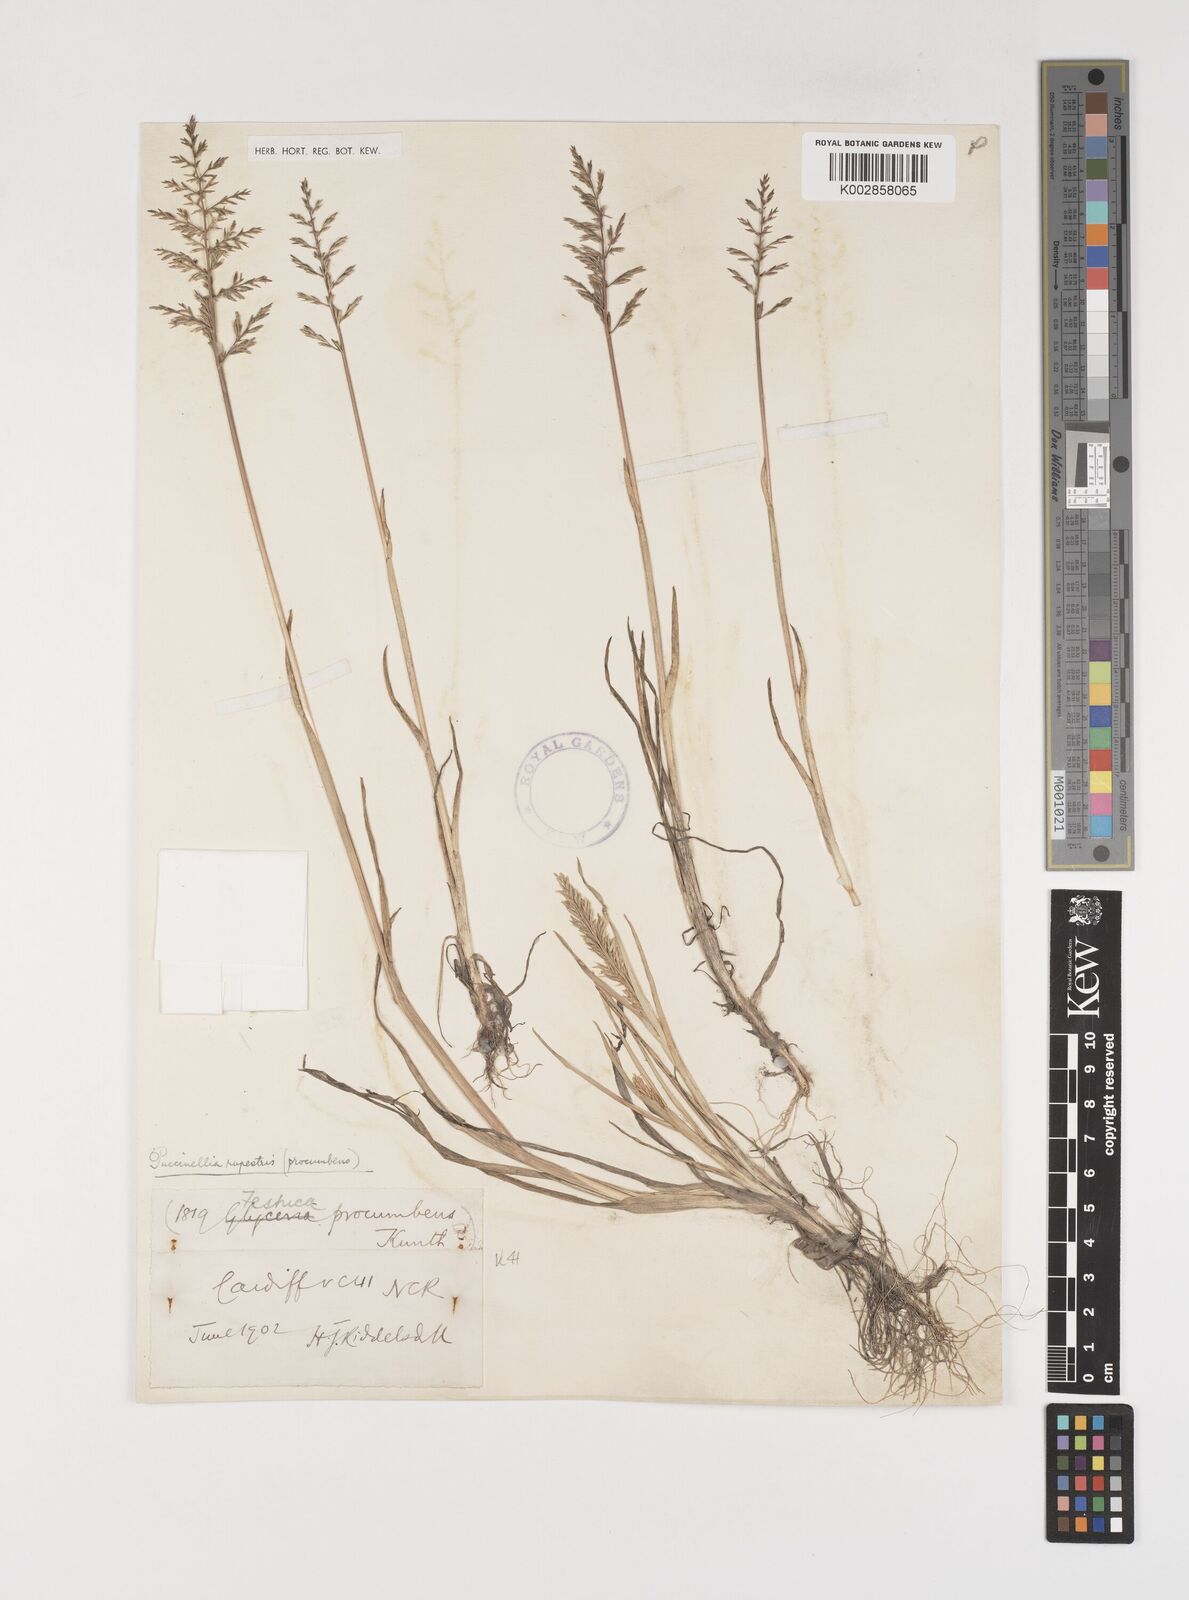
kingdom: Plantae
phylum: Tracheophyta
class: Liliopsida
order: Poales
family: Poaceae
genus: Puccinellia
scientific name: Puccinellia rupestris
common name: Stiff saltmarsh-grass
